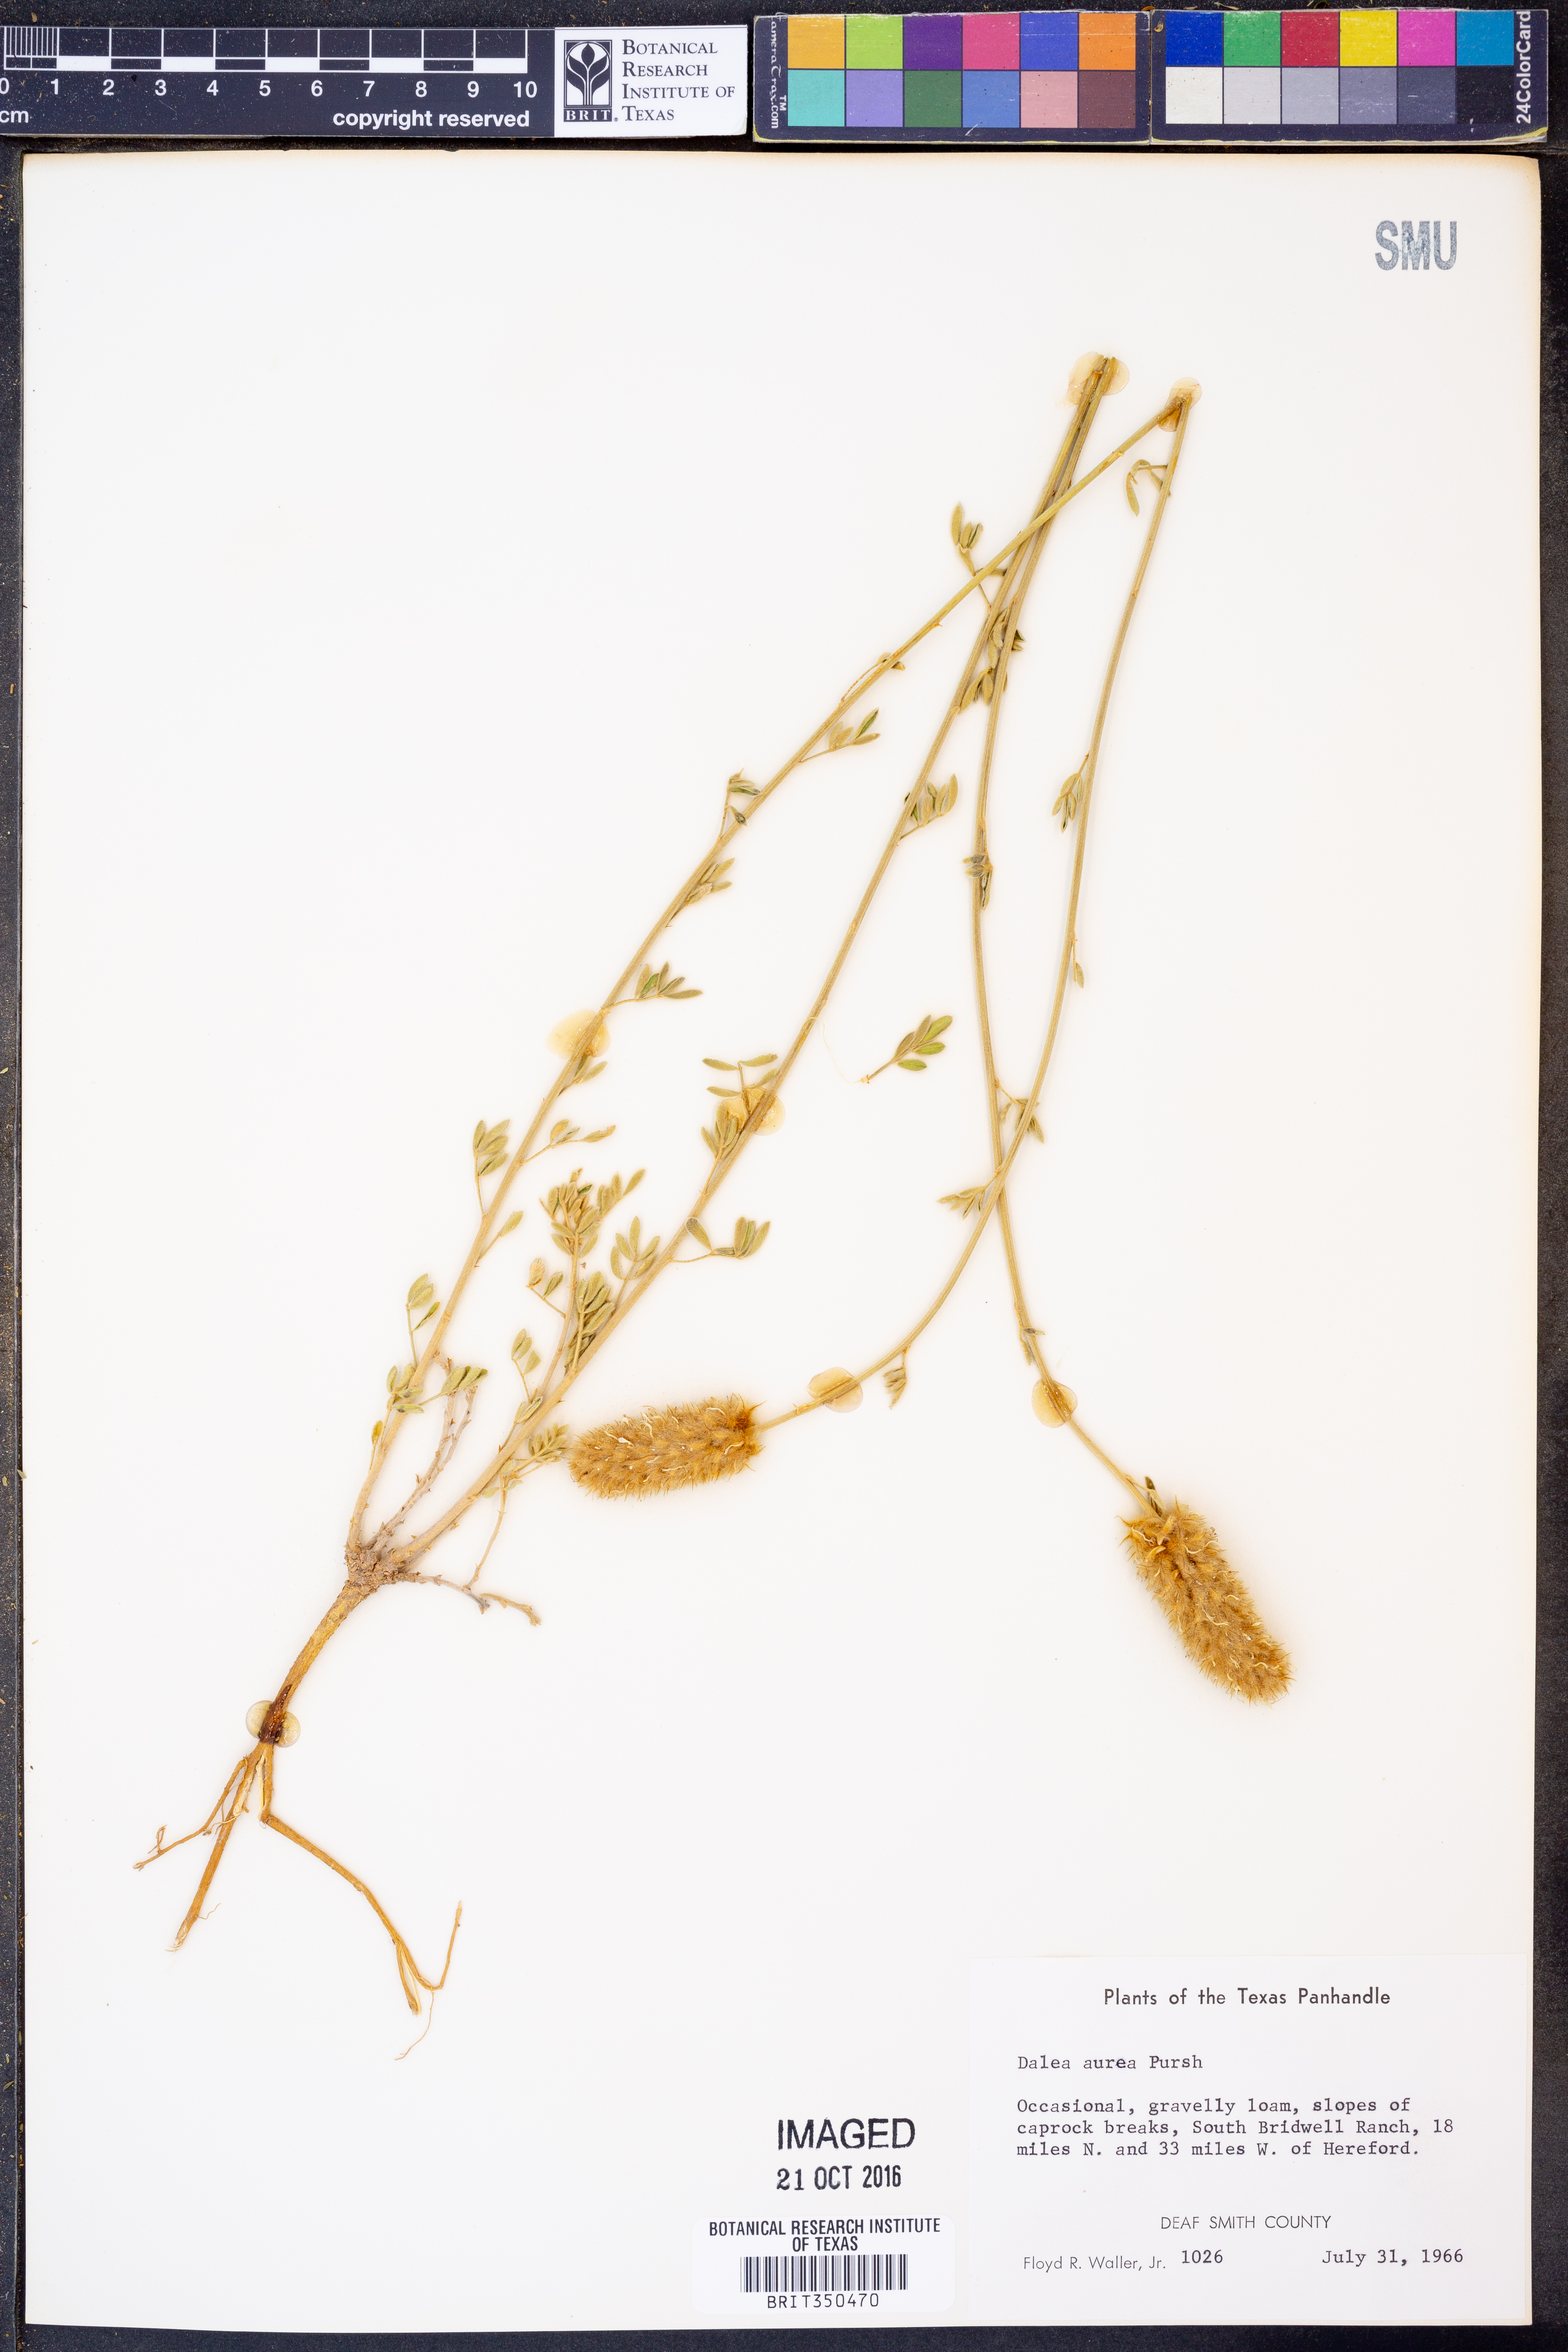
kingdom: Plantae
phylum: Tracheophyta
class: Magnoliopsida
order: Fabales
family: Fabaceae
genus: Dalea
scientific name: Dalea aurea
